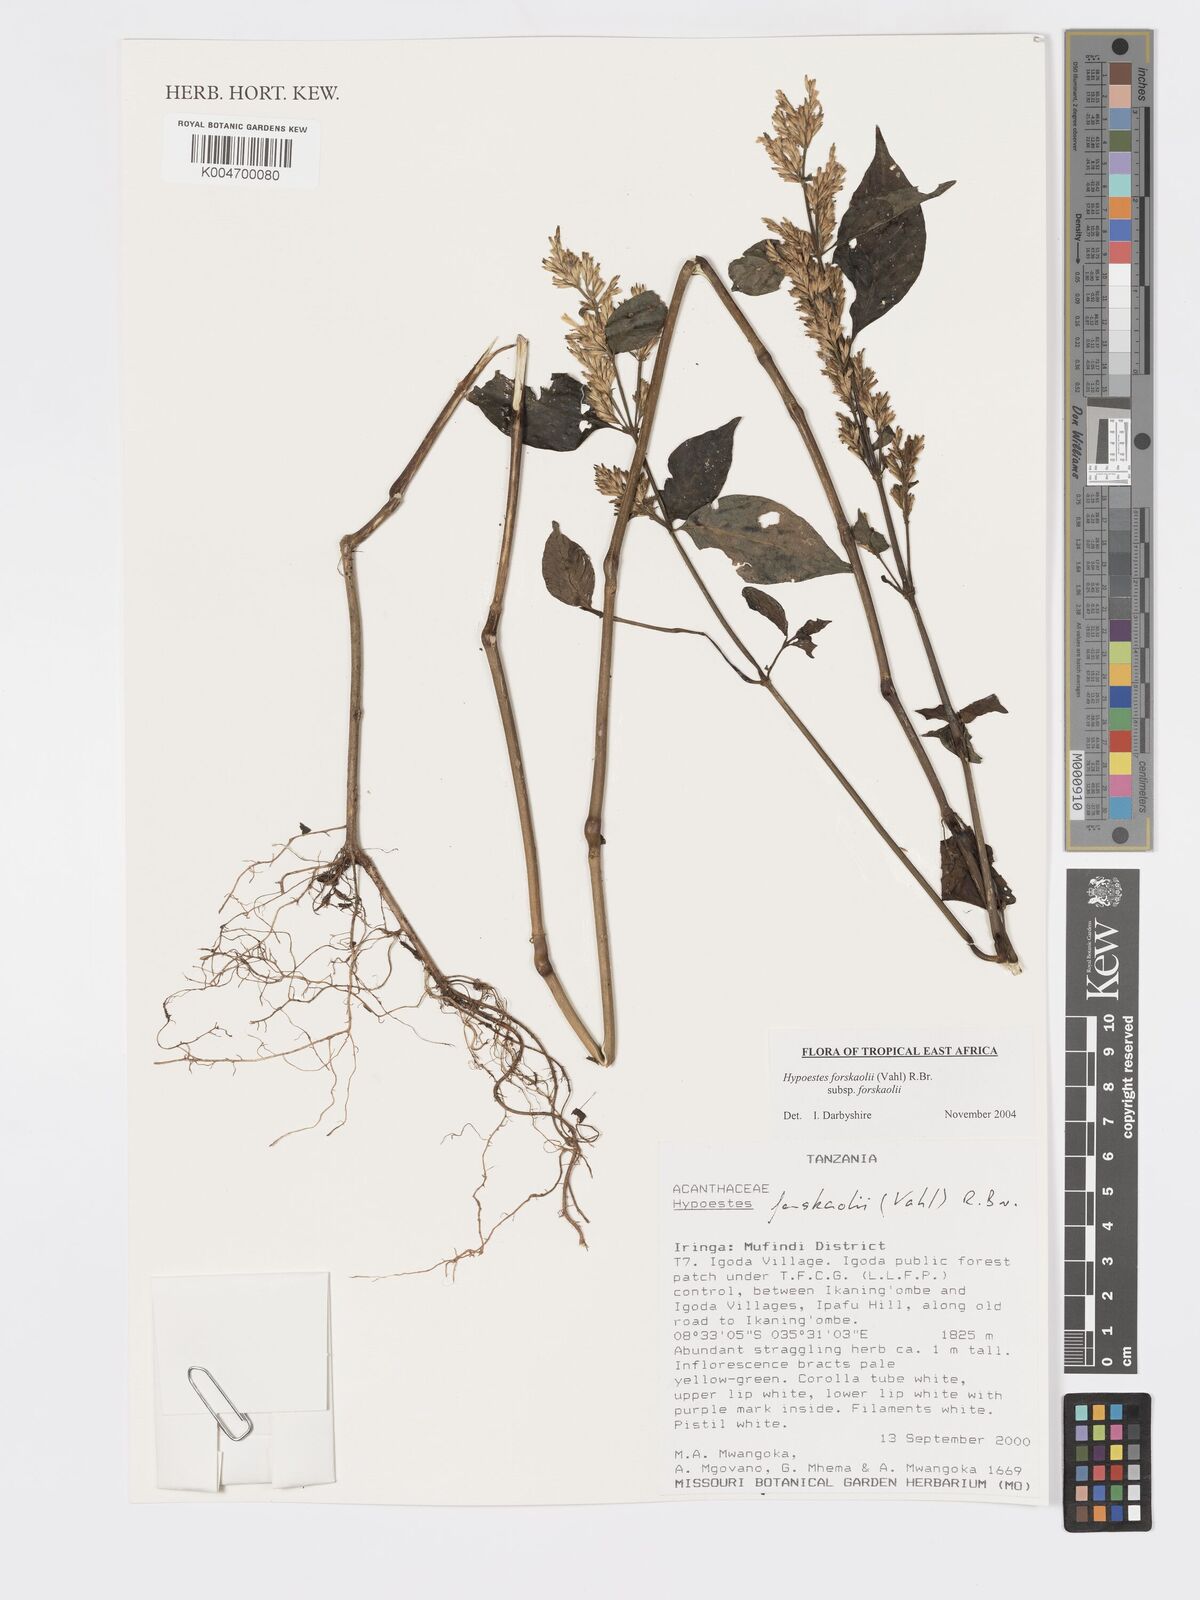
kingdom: Plantae
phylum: Tracheophyta
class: Magnoliopsida
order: Lamiales
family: Acanthaceae
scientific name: Acanthaceae
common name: Acanthaceae
